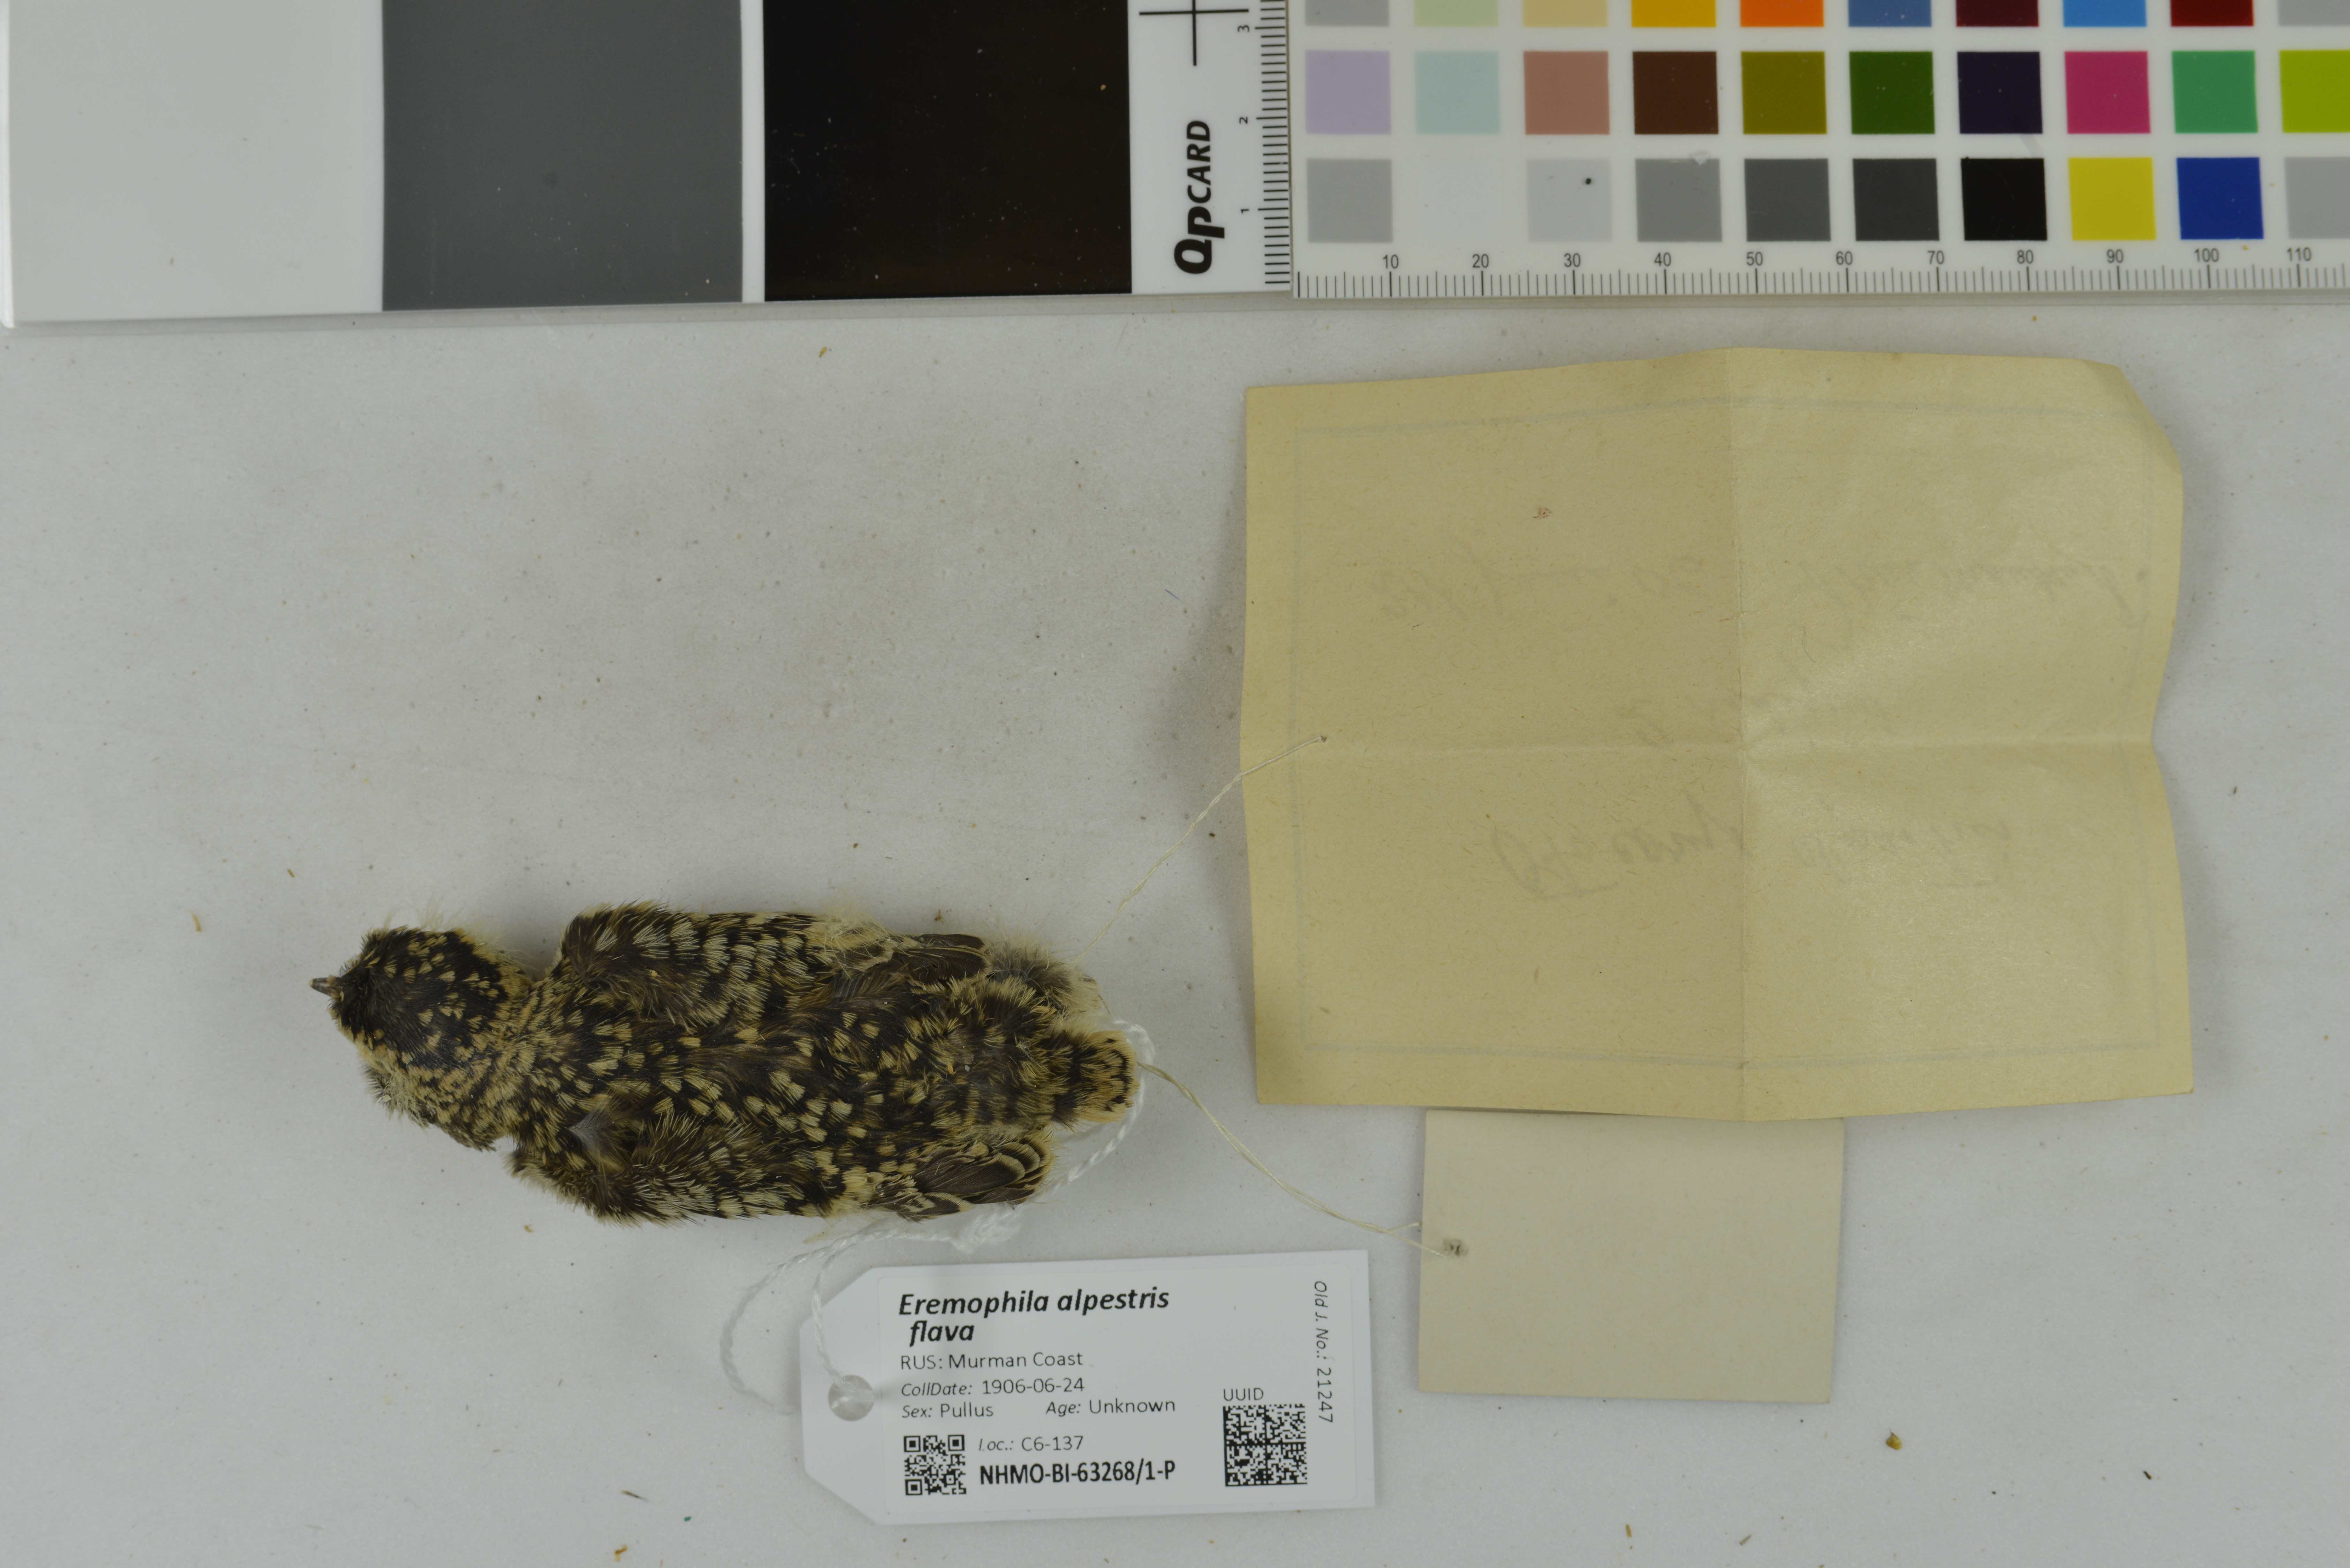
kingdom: Animalia
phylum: Chordata
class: Aves
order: Passeriformes
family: Alaudidae
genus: Eremophila
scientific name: Eremophila alpestris
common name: Horned lark
